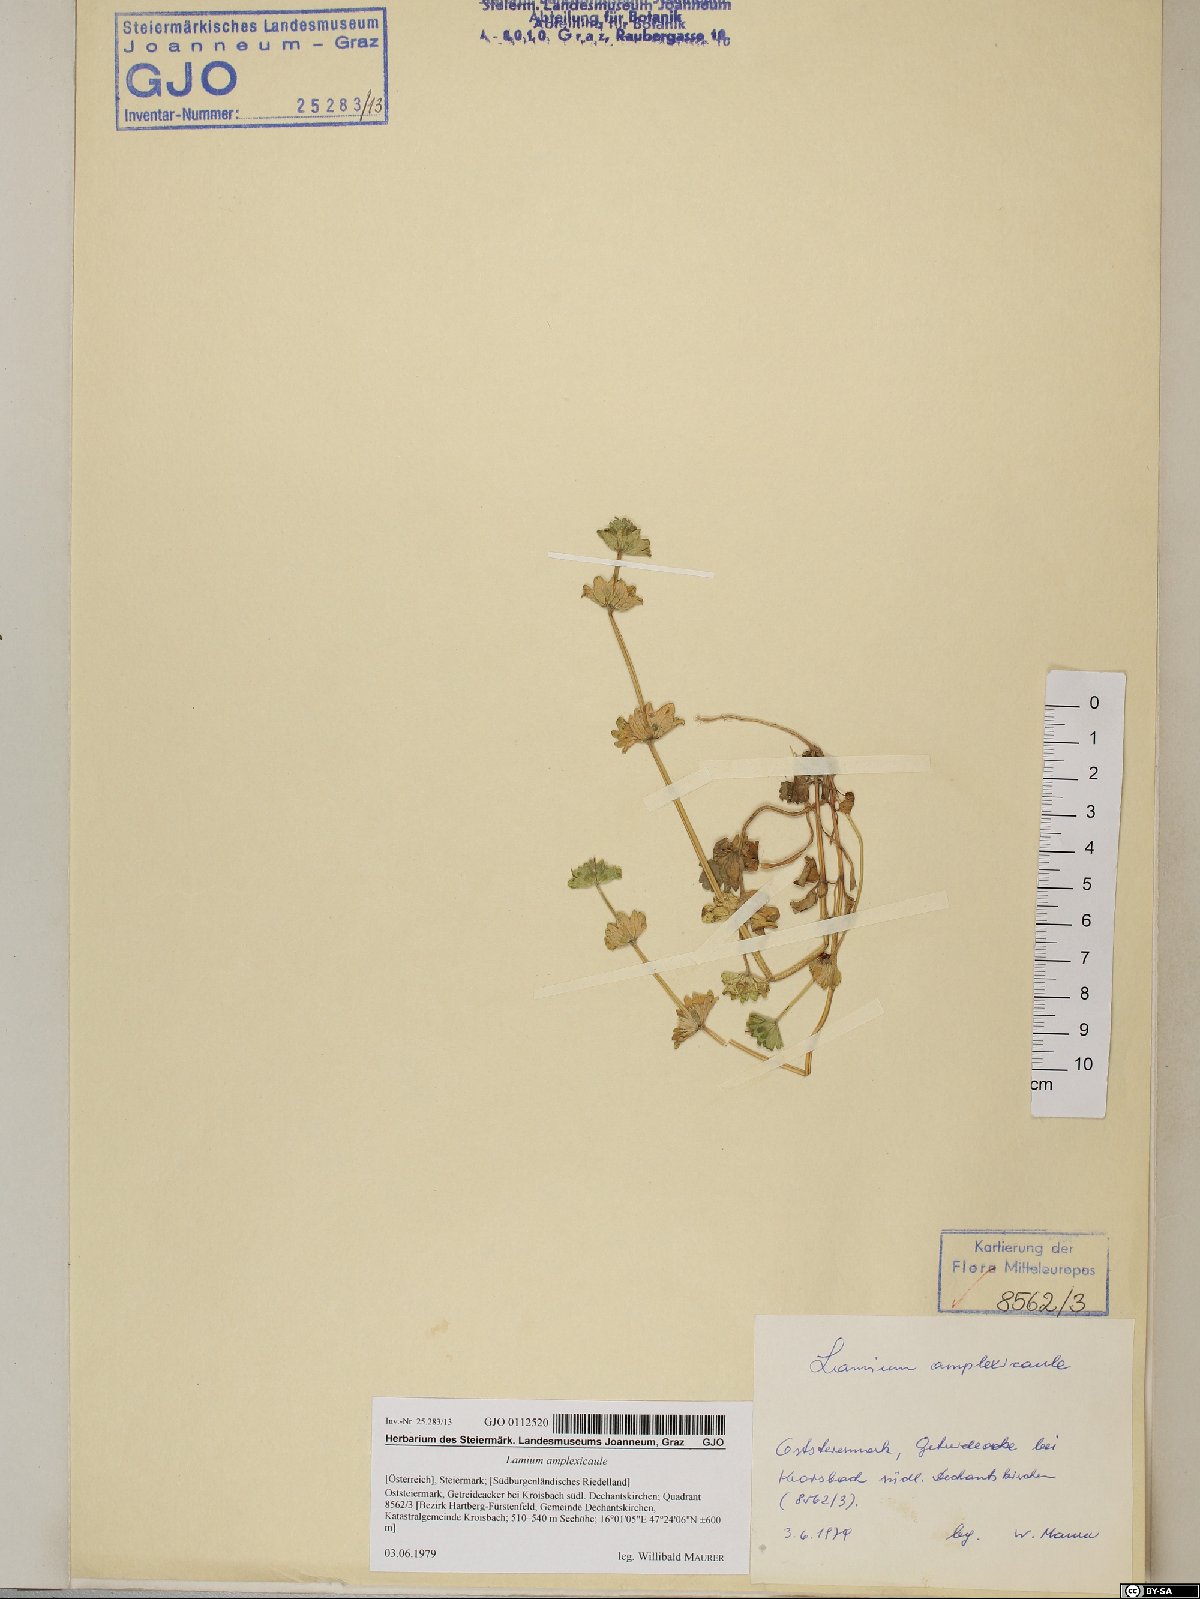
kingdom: Plantae
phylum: Tracheophyta
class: Magnoliopsida
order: Lamiales
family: Lamiaceae
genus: Lamium
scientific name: Lamium amplexicaule
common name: Henbit dead-nettle
